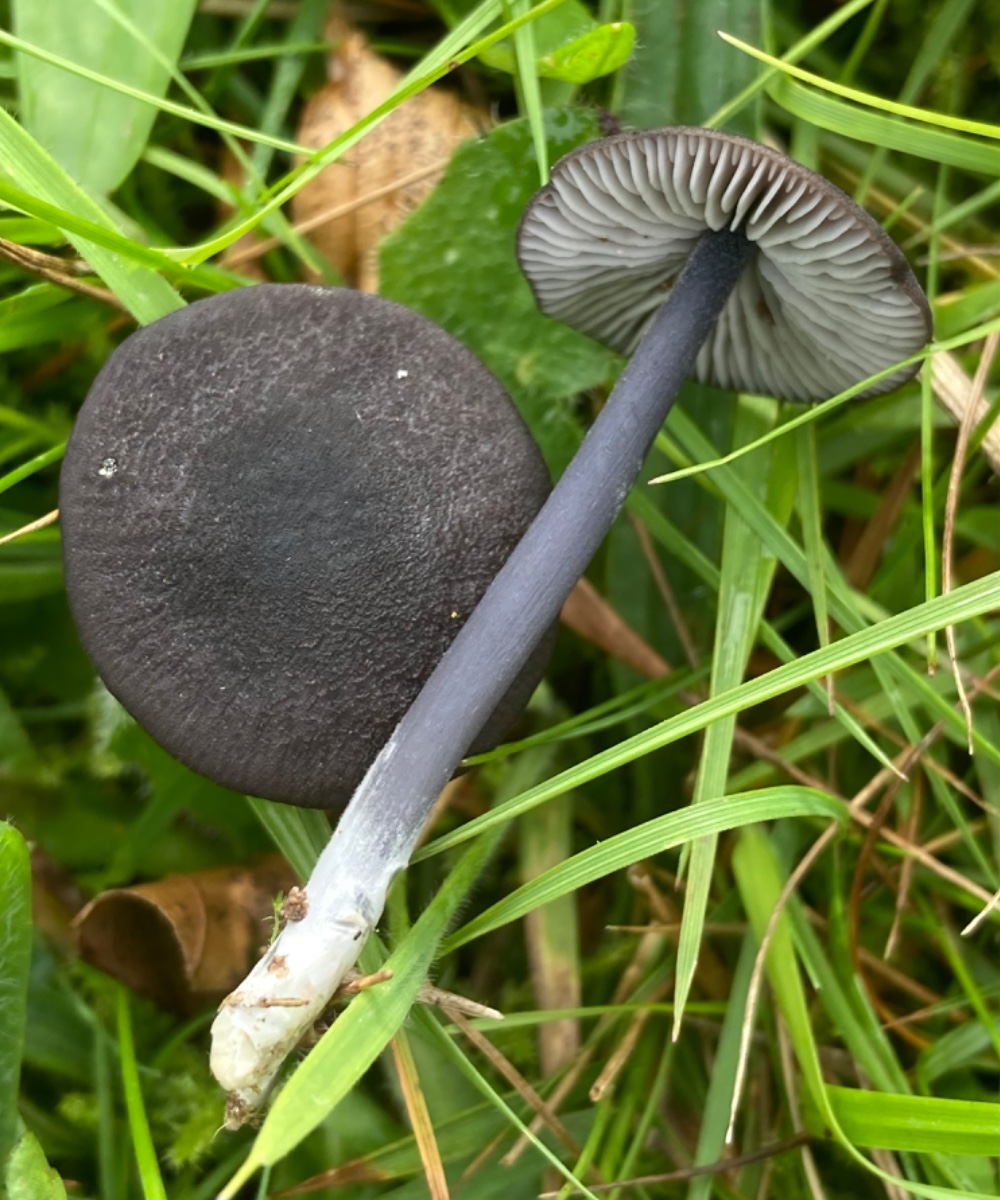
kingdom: Fungi
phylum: Basidiomycota
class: Agaricomycetes
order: Agaricales
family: Entolomataceae
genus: Entoloma
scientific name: Entoloma chalybeum
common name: blåbladet rødblad
